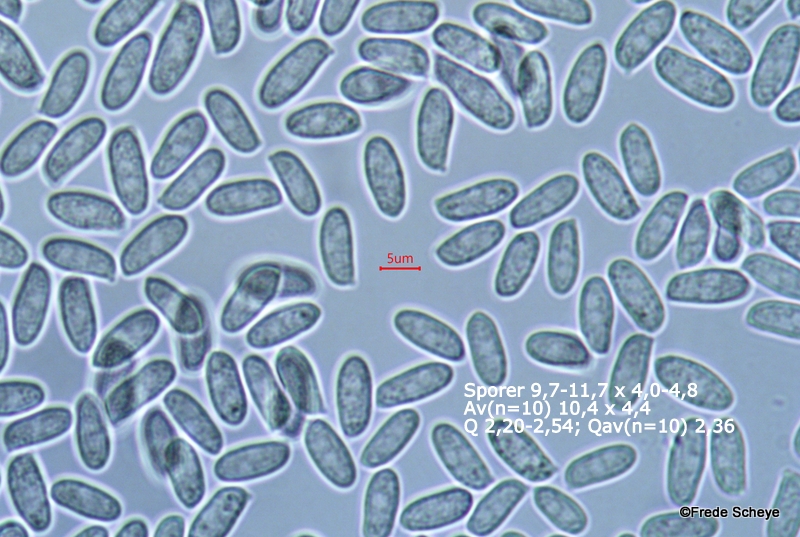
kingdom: Fungi
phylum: Basidiomycota
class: Agaricomycetes
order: Agaricales
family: Physalacriaceae
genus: Flammulina
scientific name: Flammulina elastica
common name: pile-fløjlsfod
